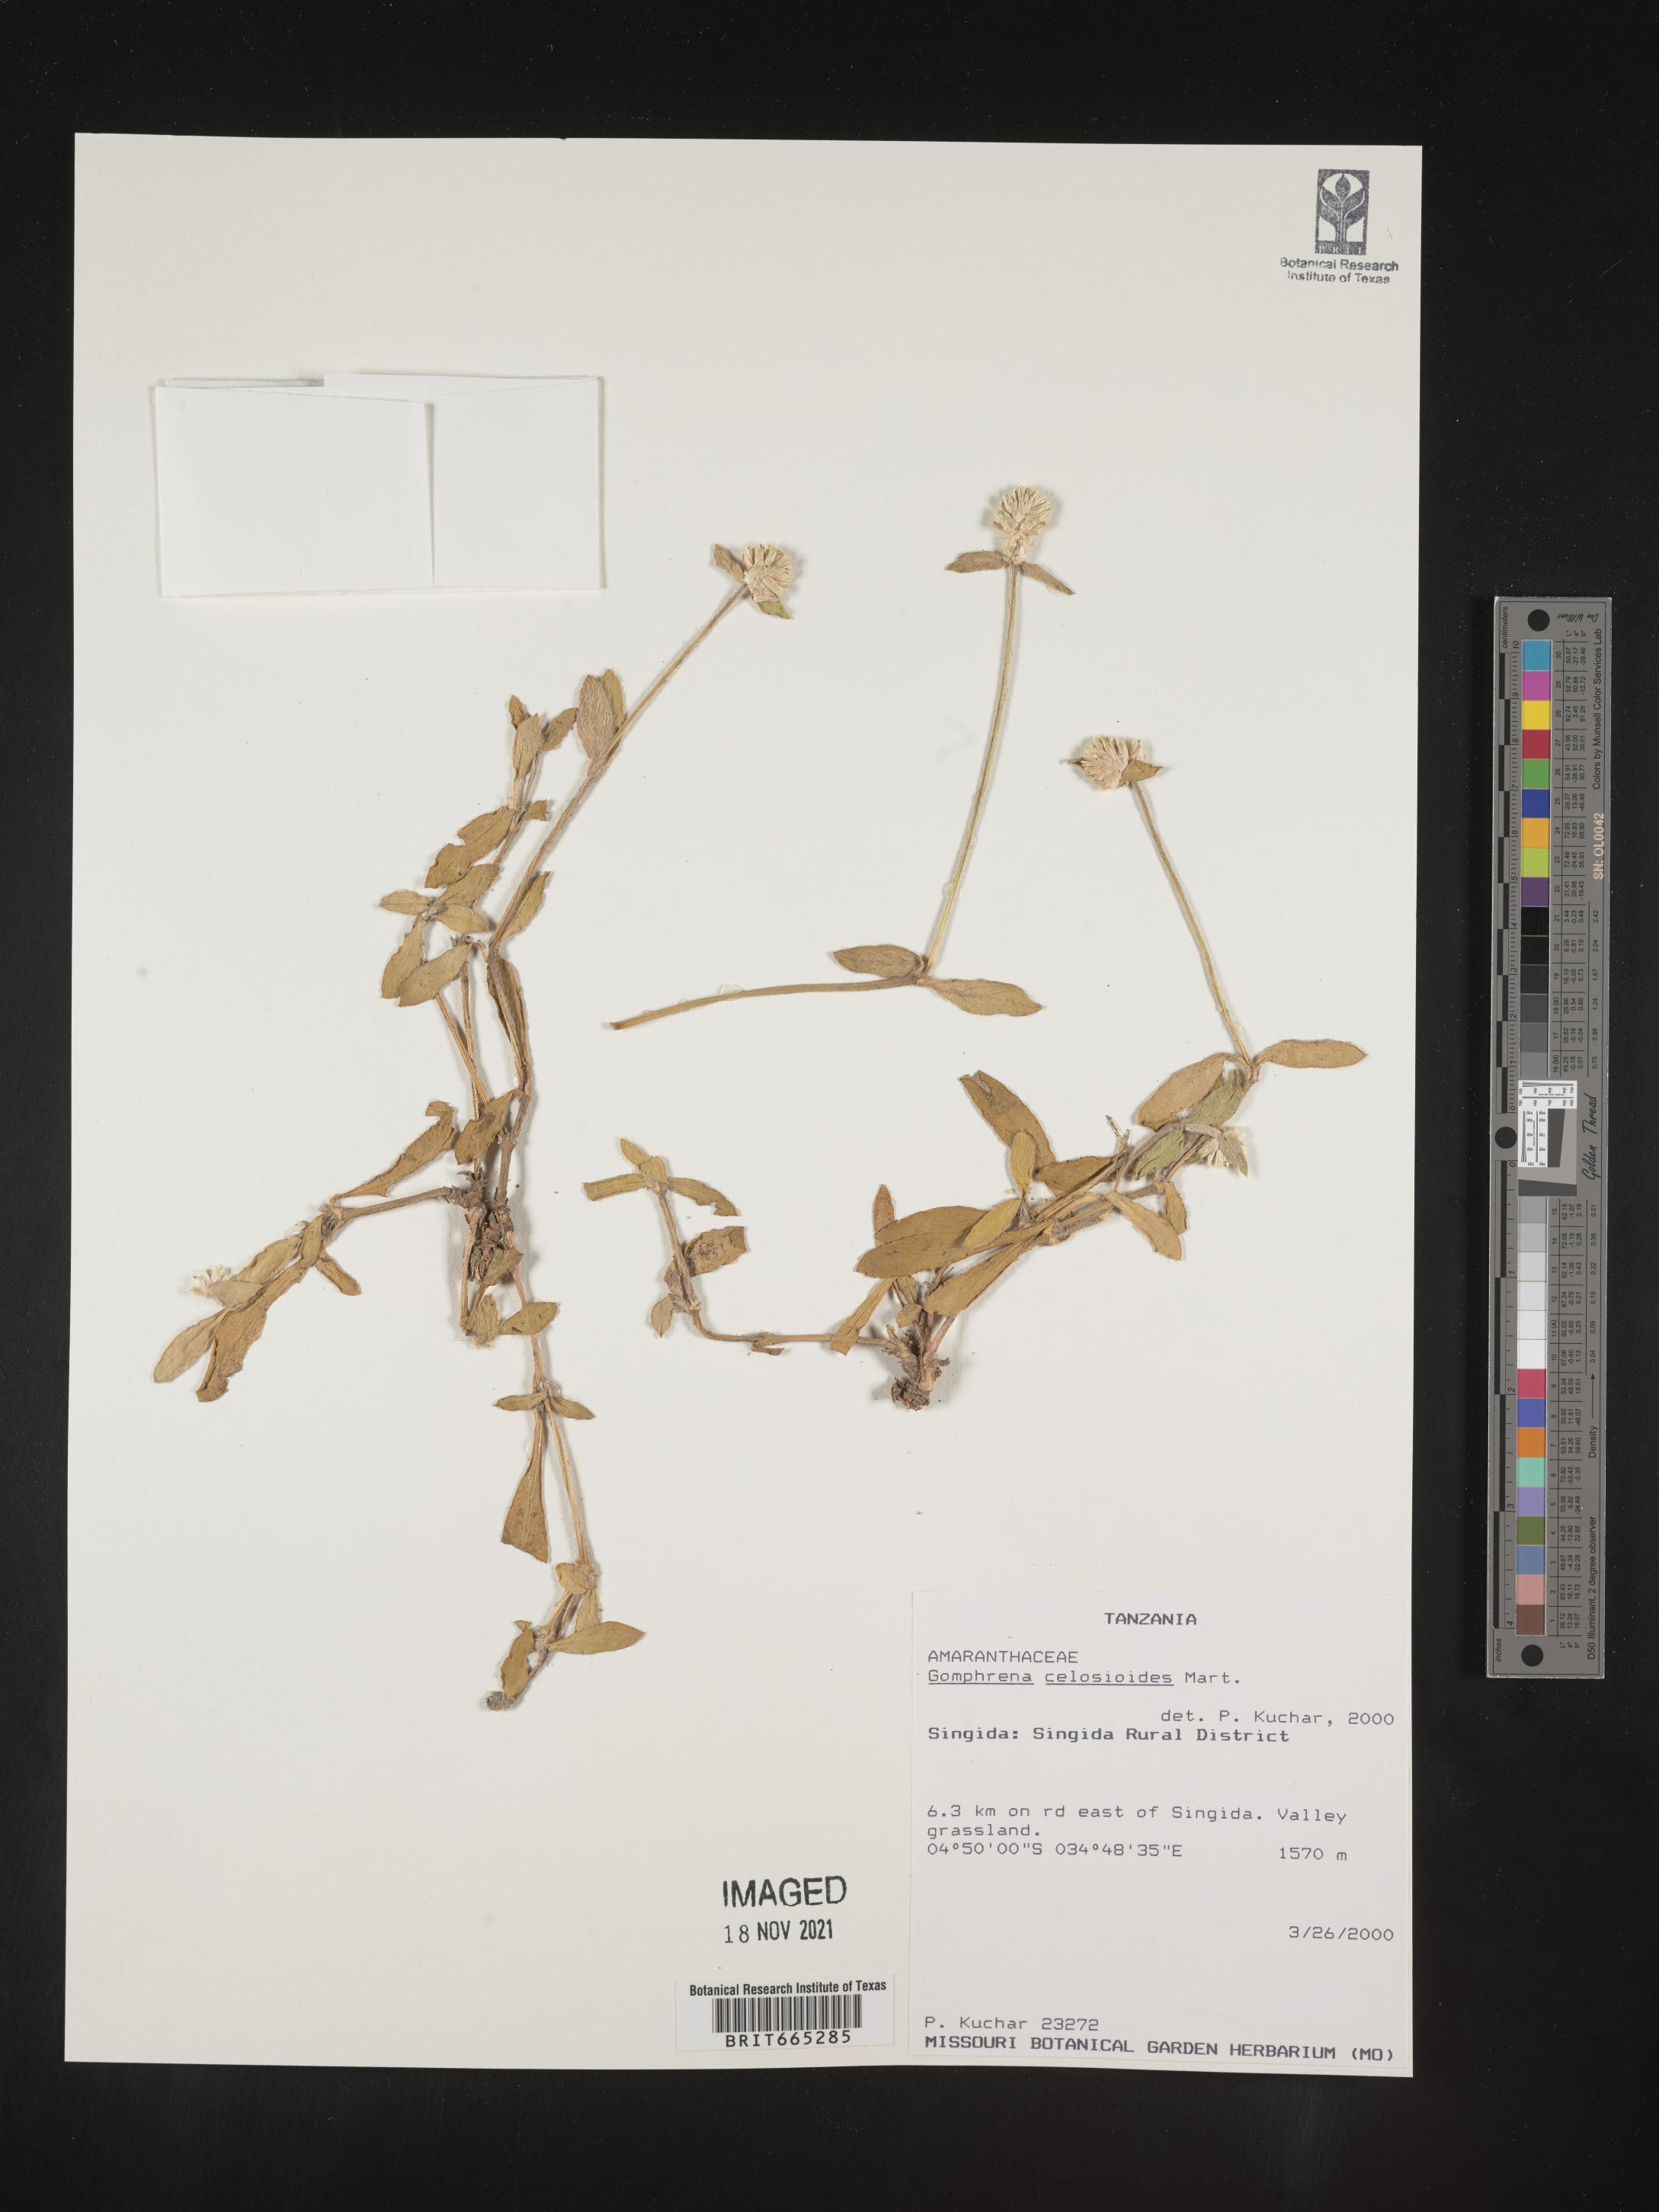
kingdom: Plantae
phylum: Tracheophyta
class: Magnoliopsida
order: Caryophyllales
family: Amaranthaceae
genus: Gomphrena
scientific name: Gomphrena
